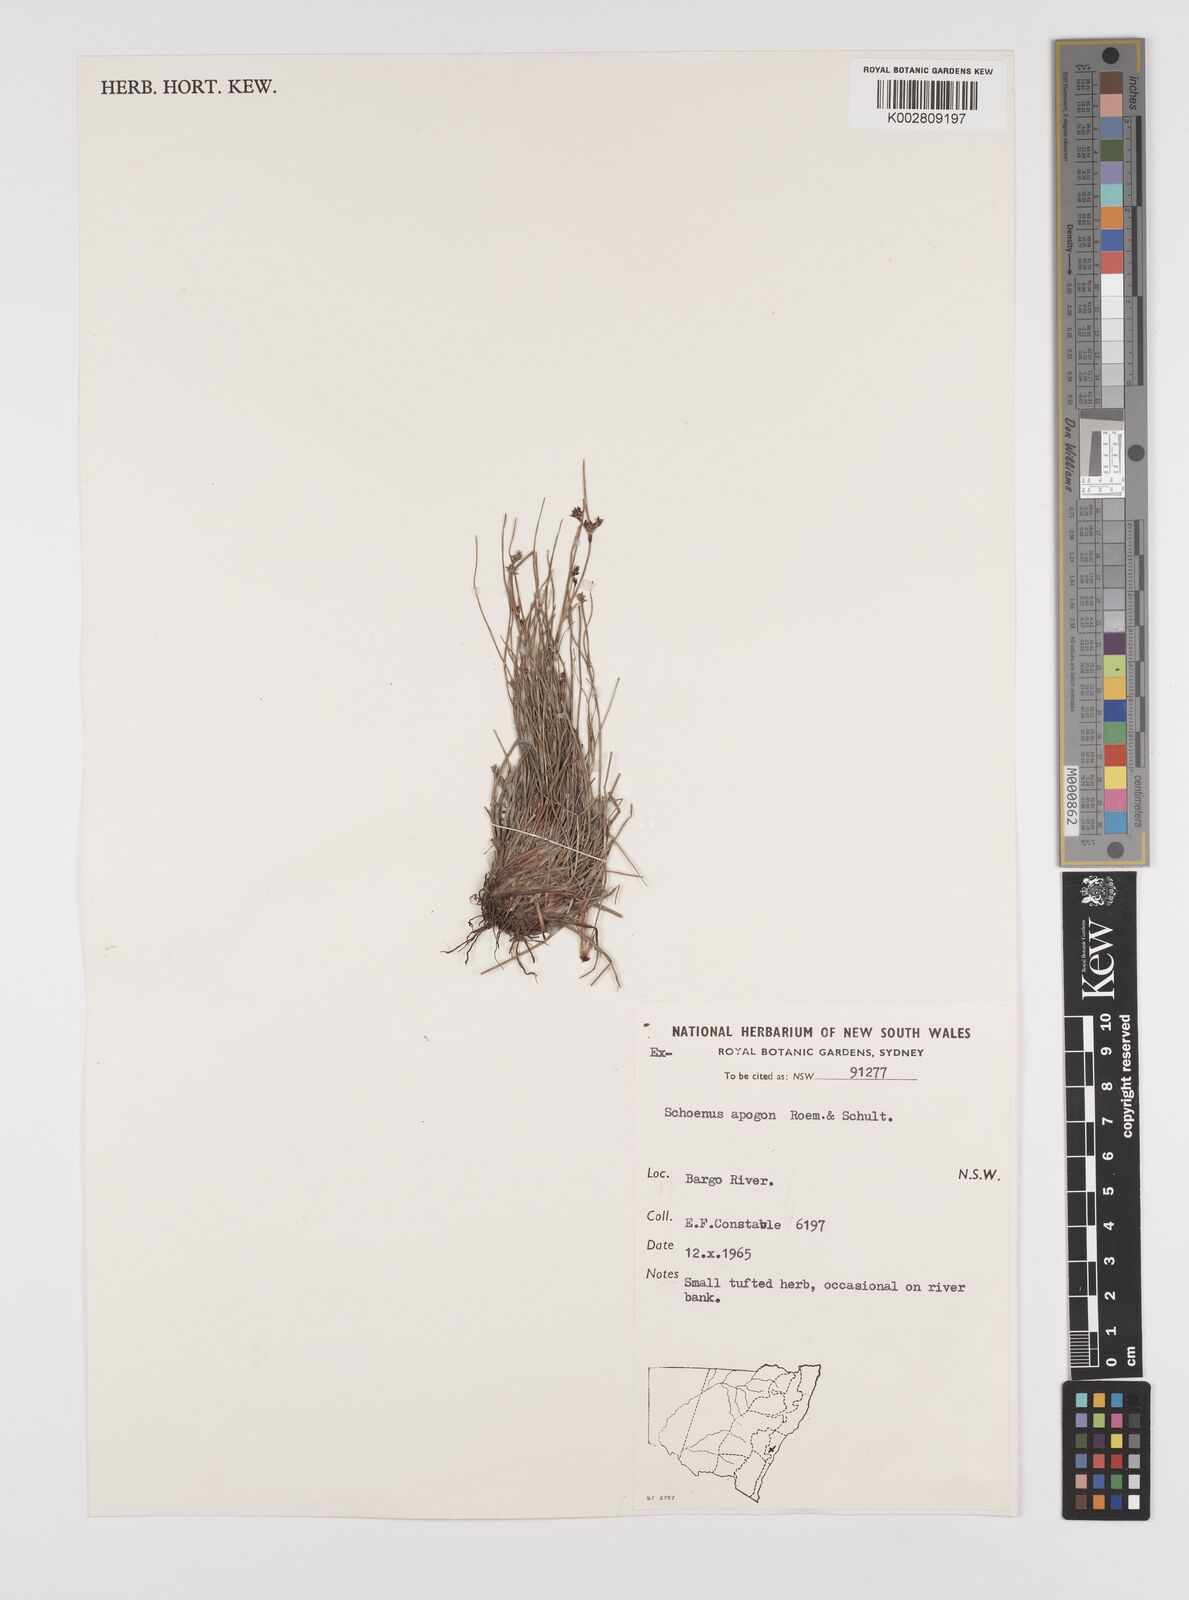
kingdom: Plantae
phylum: Tracheophyta
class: Liliopsida
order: Poales
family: Cyperaceae
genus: Schoenus
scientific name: Schoenus apogon
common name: Smooth bogrush
